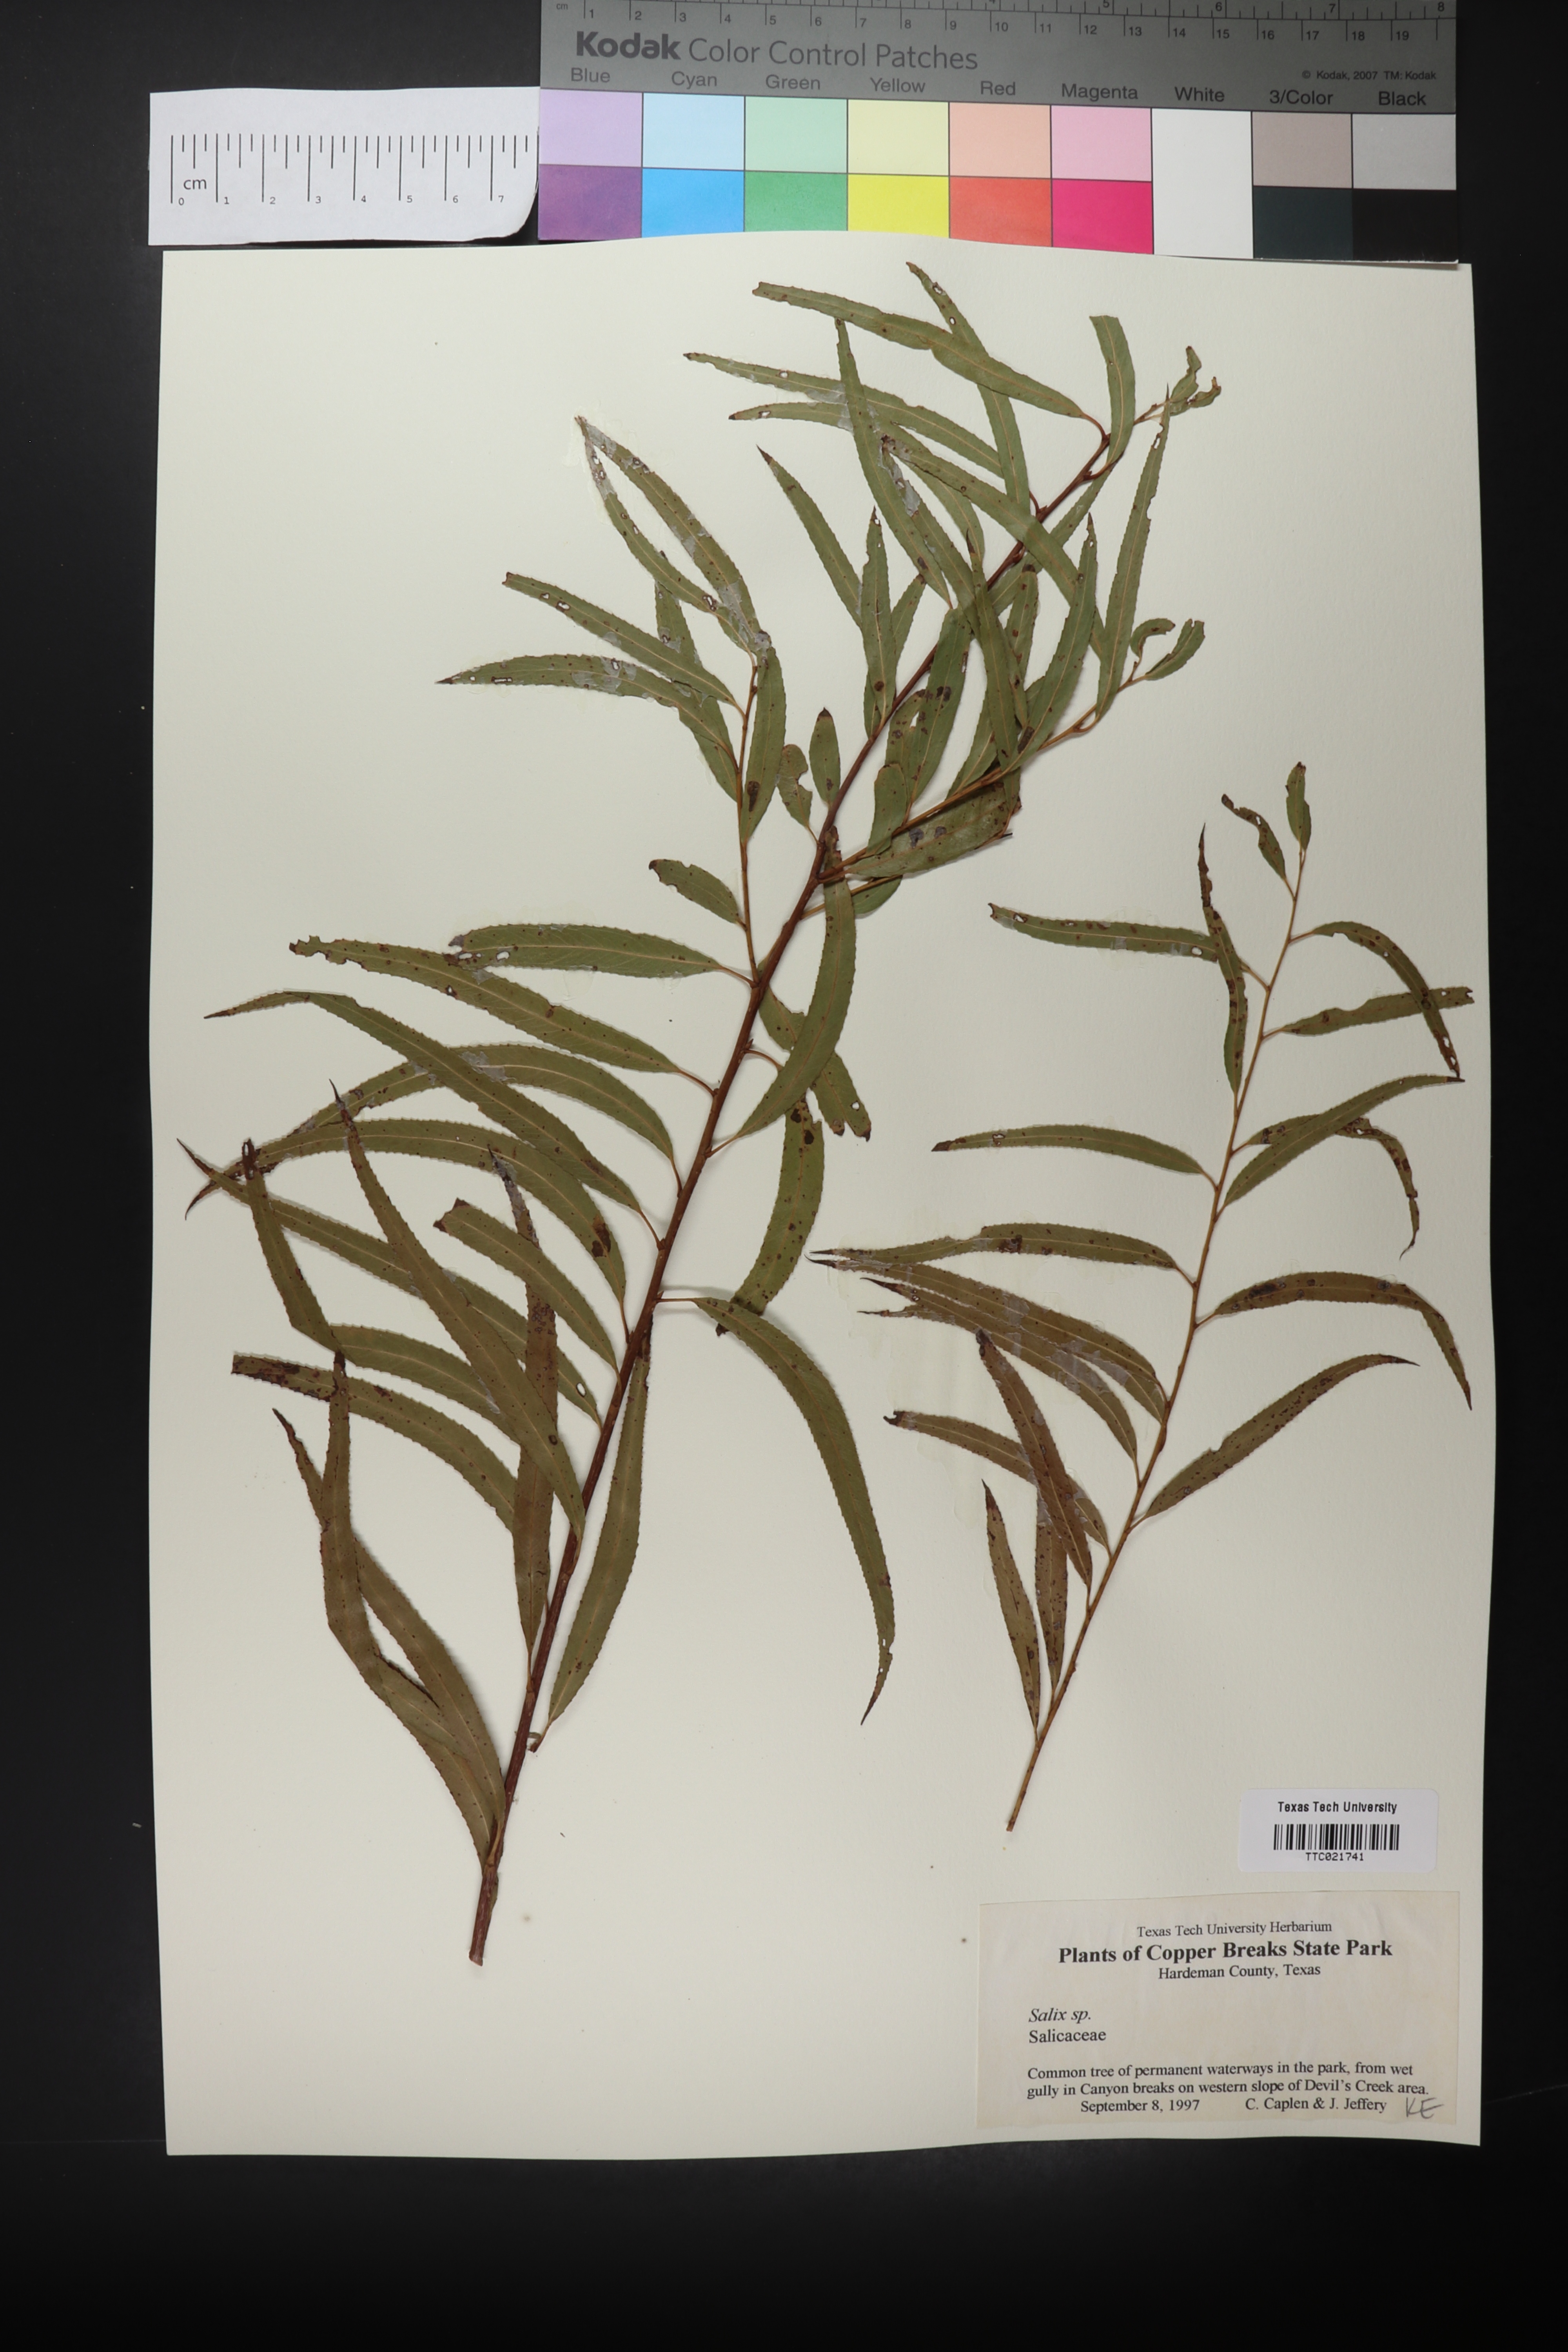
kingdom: Plantae
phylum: Tracheophyta
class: Magnoliopsida
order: Malpighiales
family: Salicaceae
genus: Salix
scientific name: Salix
